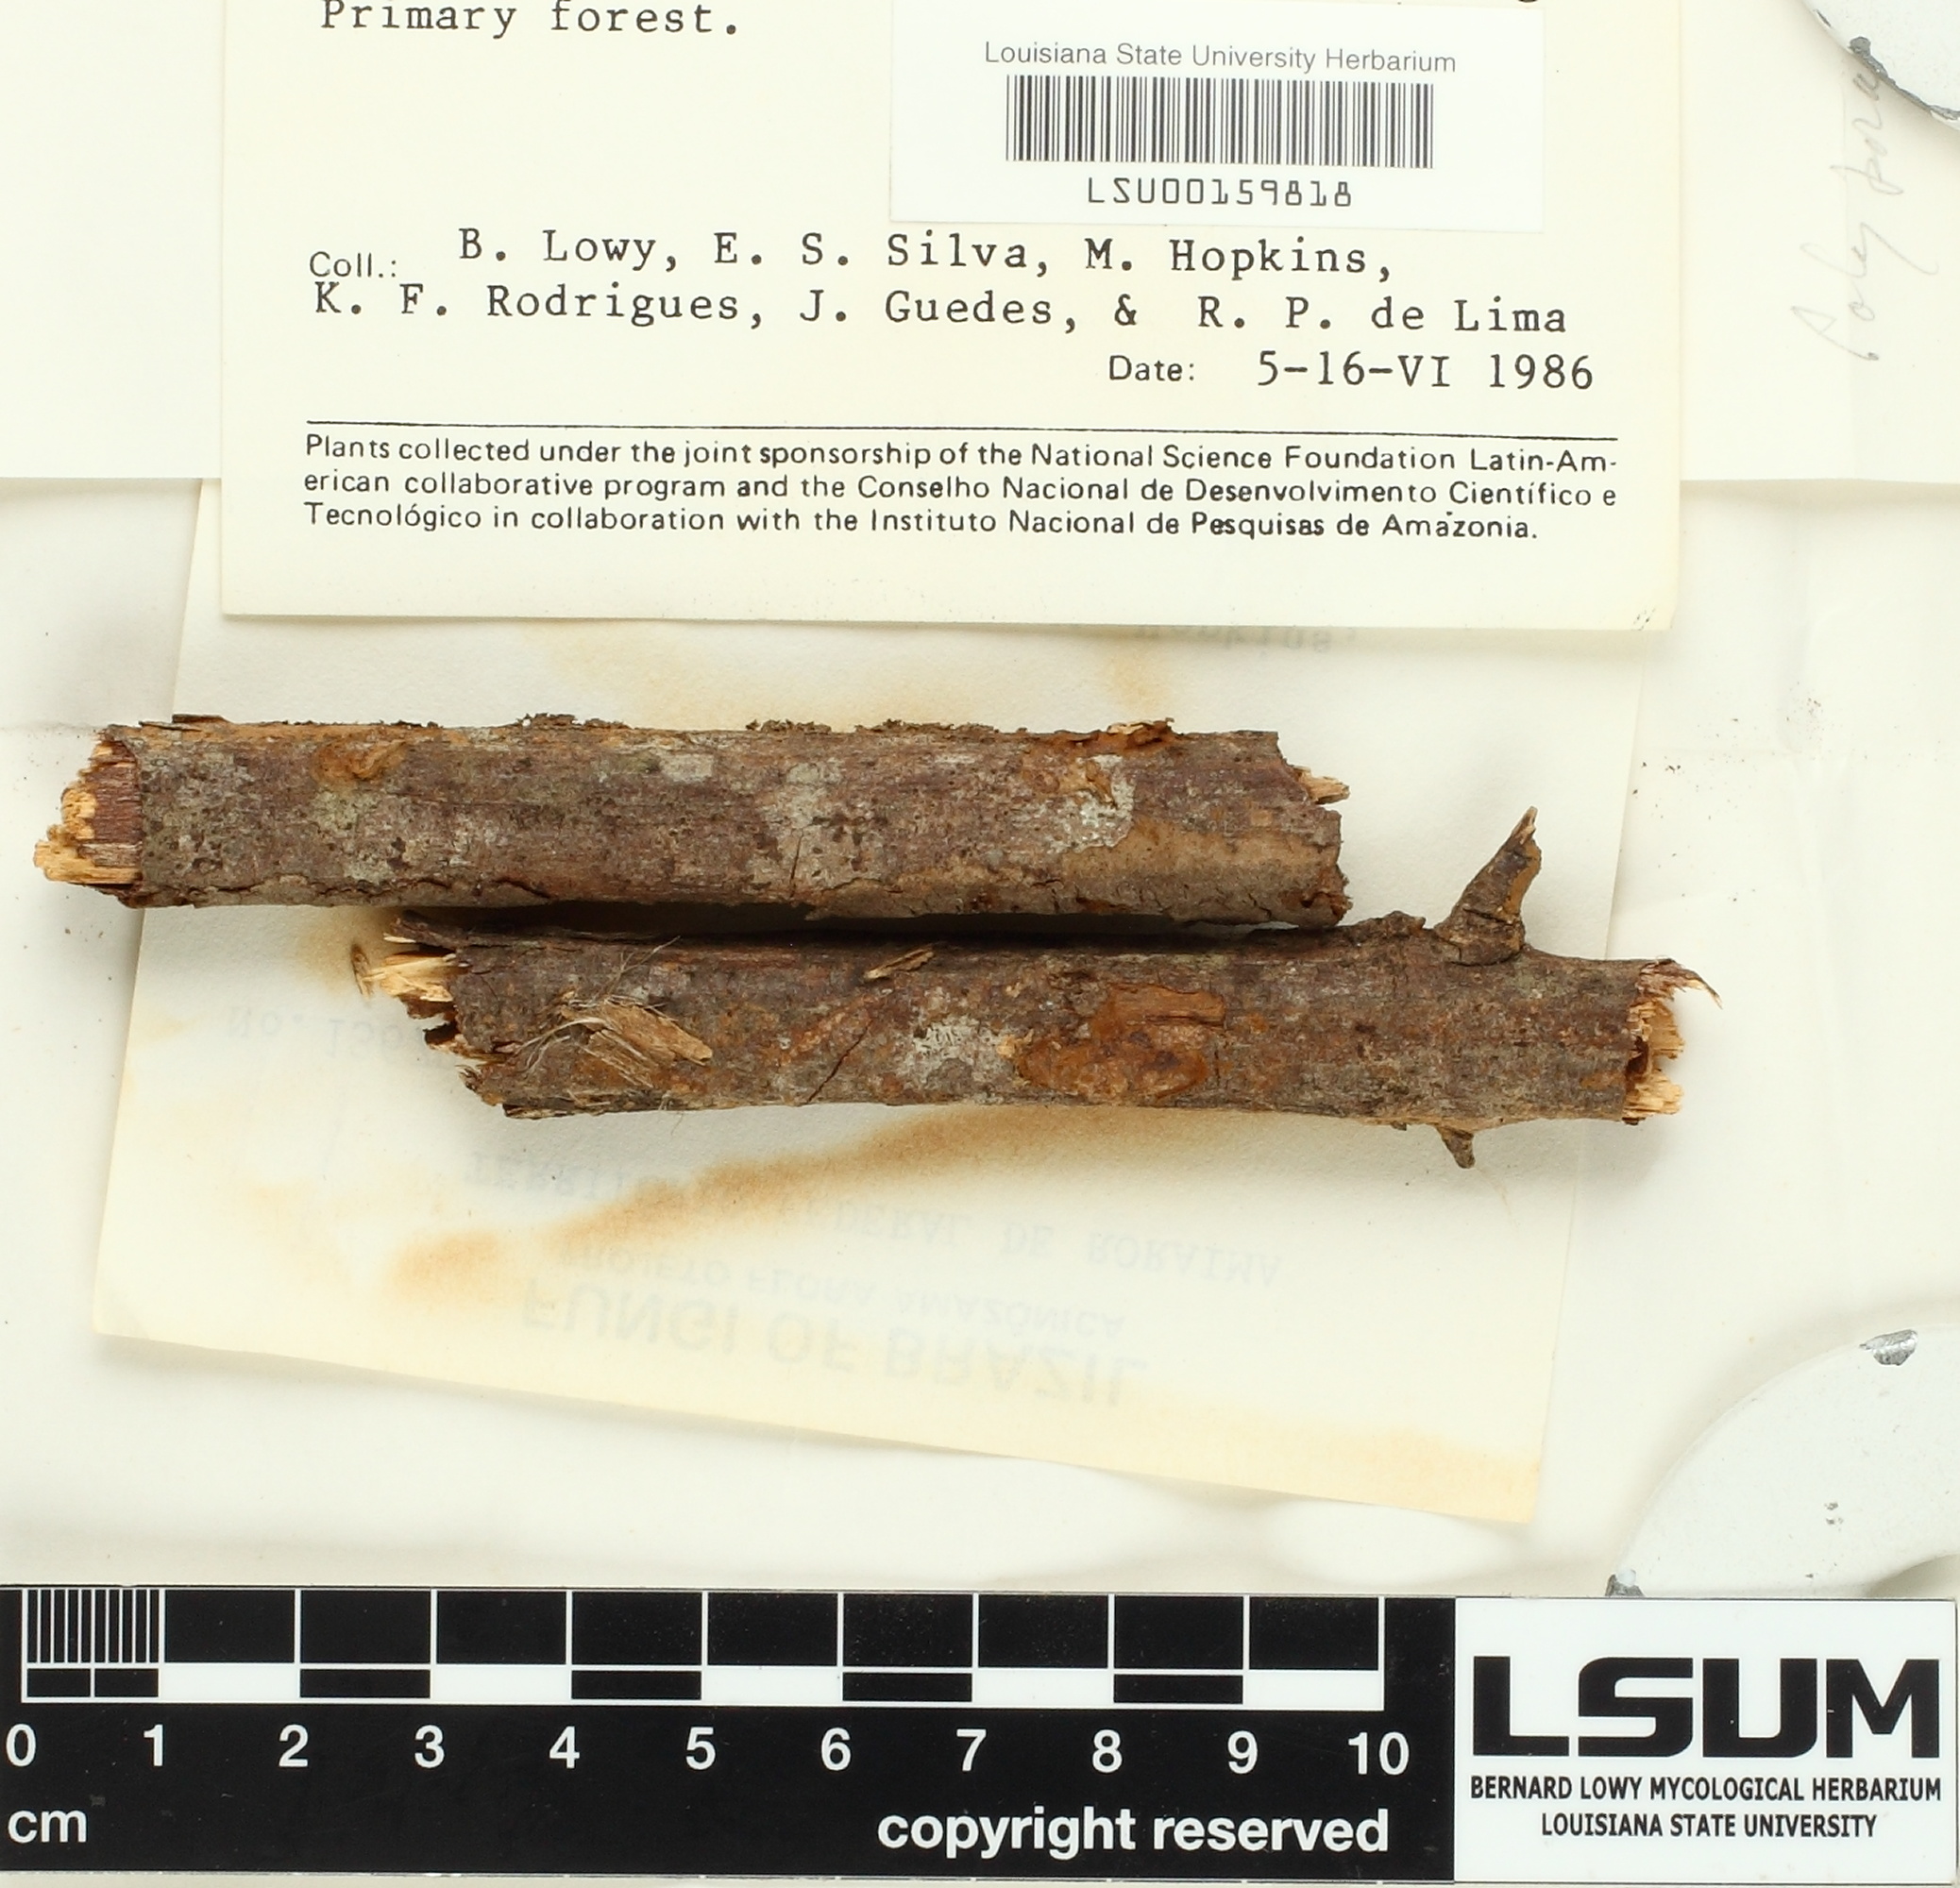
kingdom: Fungi
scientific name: Fungi
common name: Fungi
